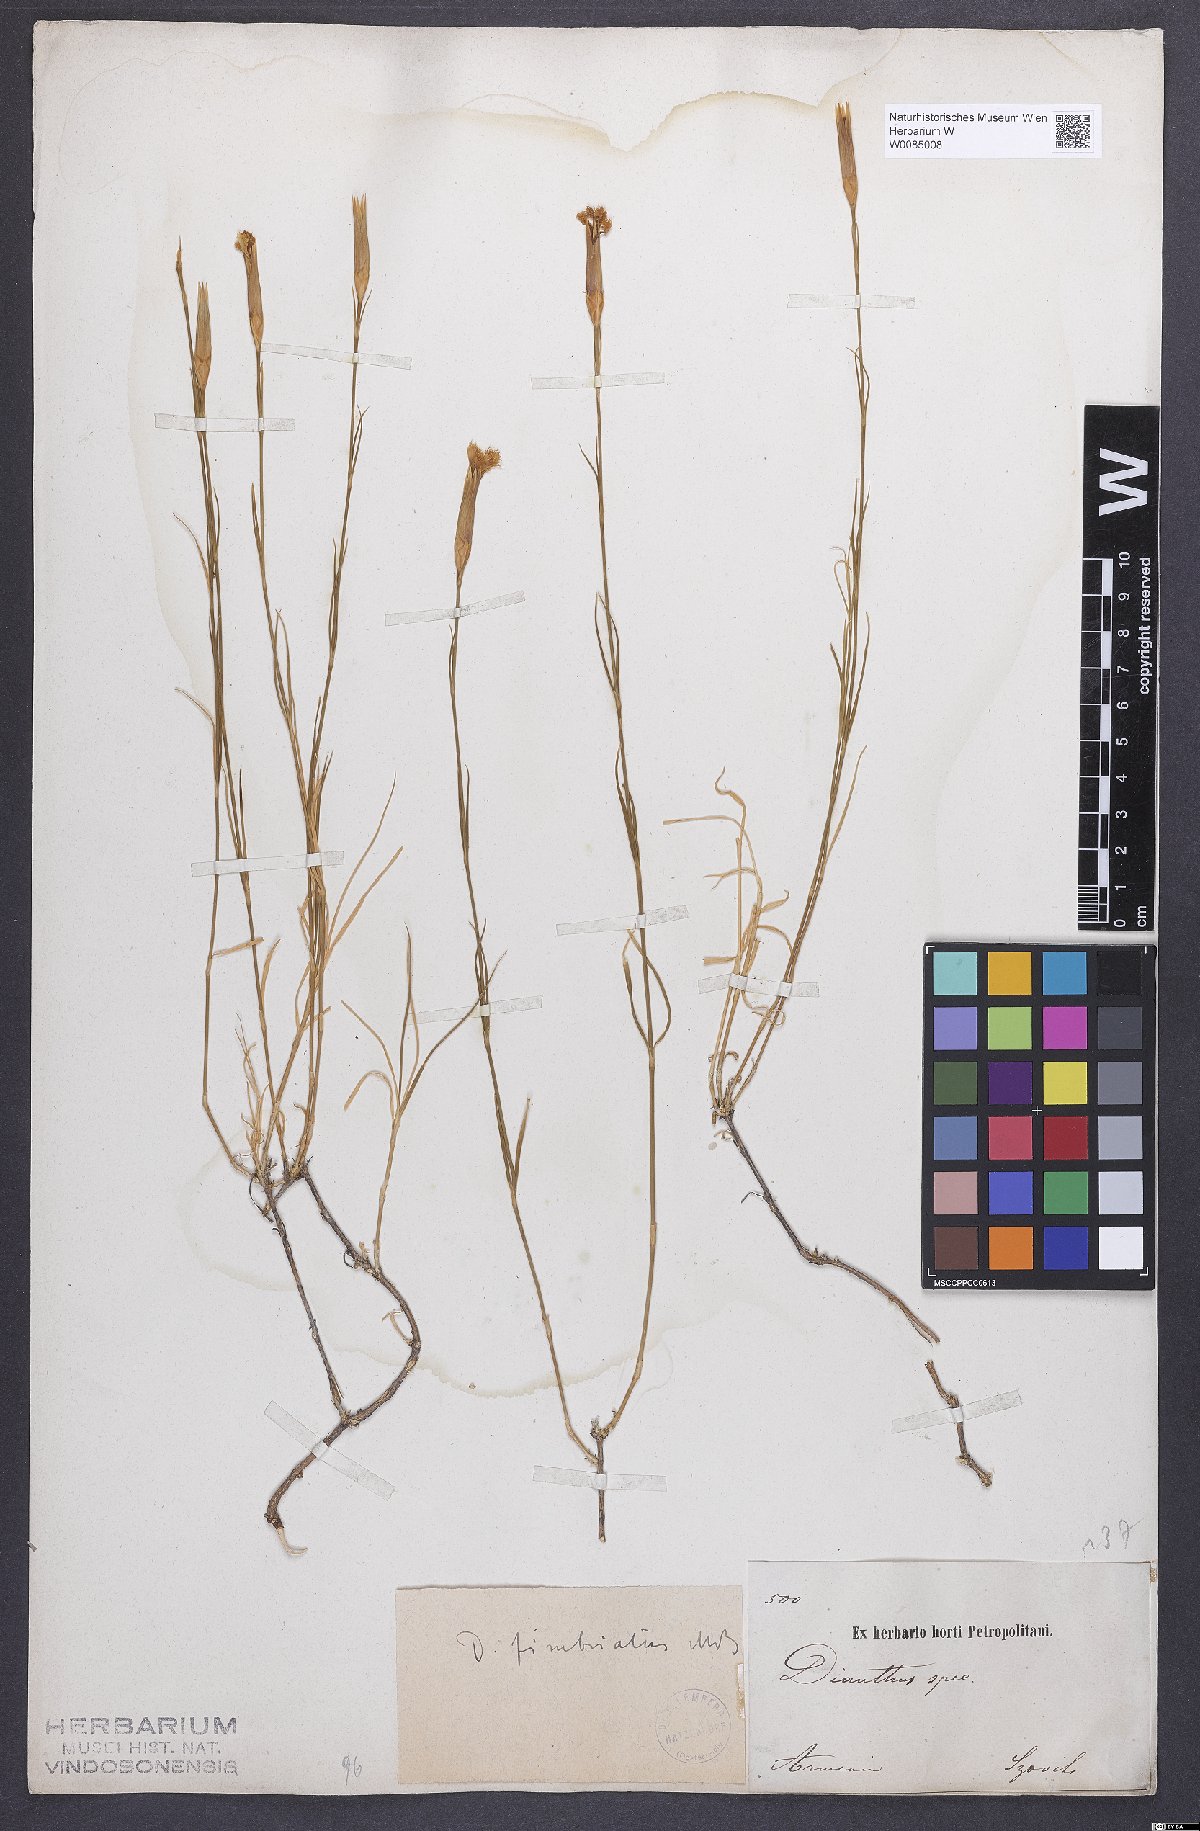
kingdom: Plantae
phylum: Tracheophyta
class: Magnoliopsida
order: Caryophyllales
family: Caryophyllaceae
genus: Dianthus
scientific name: Dianthus broteri
